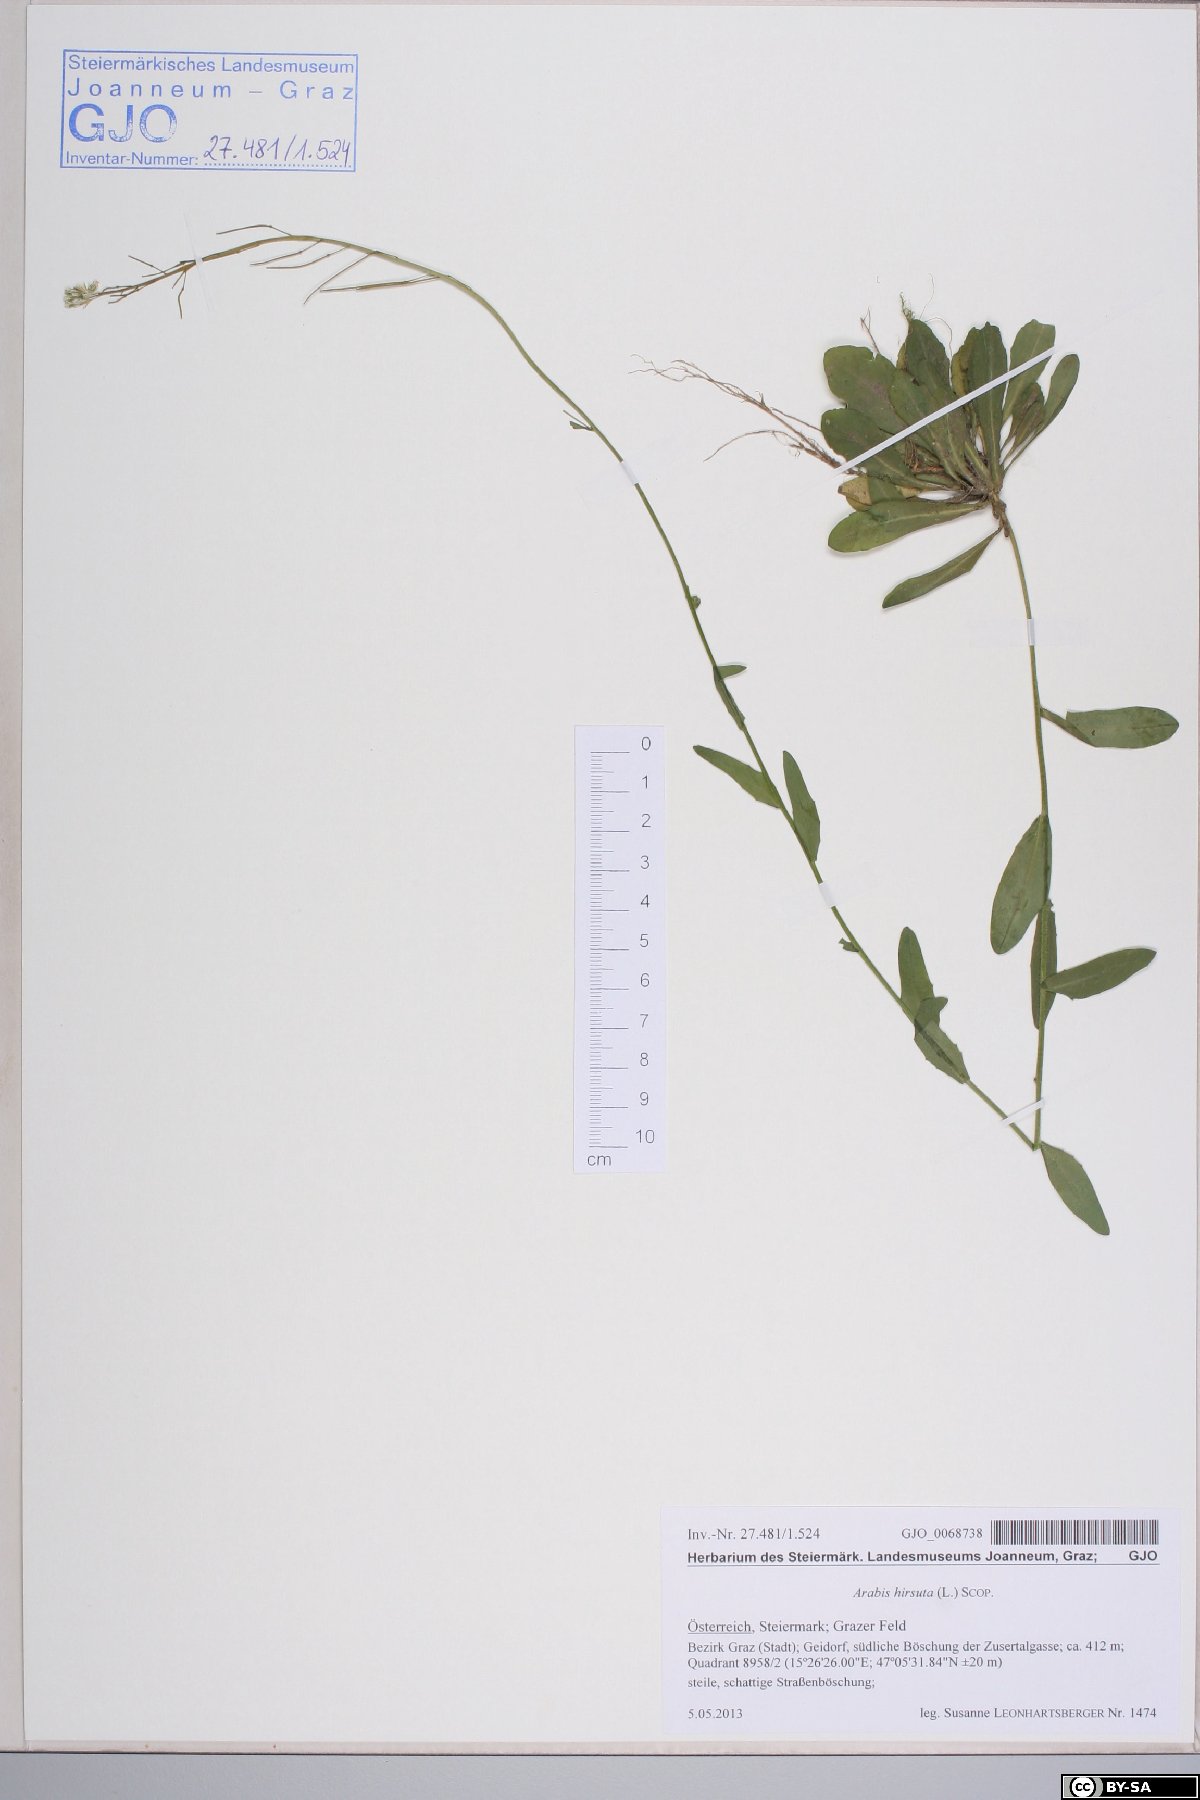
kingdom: Plantae
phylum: Tracheophyta
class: Magnoliopsida
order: Brassicales
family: Brassicaceae
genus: Arabis
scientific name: Arabis hirsuta
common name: Hairy rock-cress
